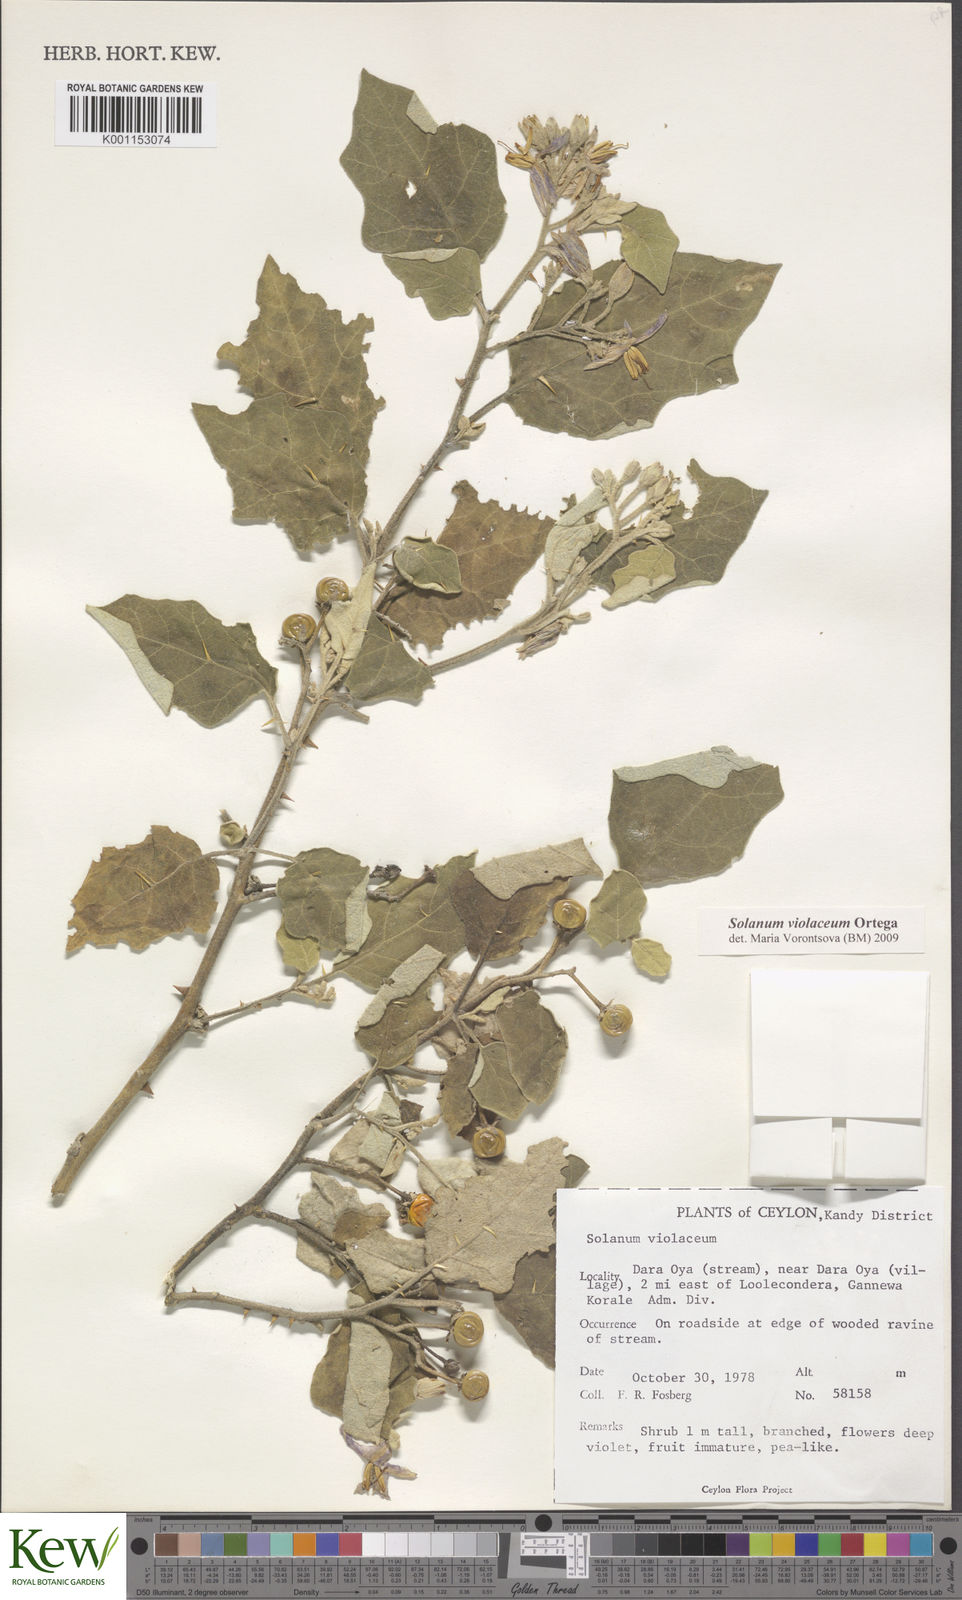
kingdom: Plantae
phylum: Tracheophyta
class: Magnoliopsida
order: Solanales
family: Solanaceae
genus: Solanum
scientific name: Solanum violaceum
